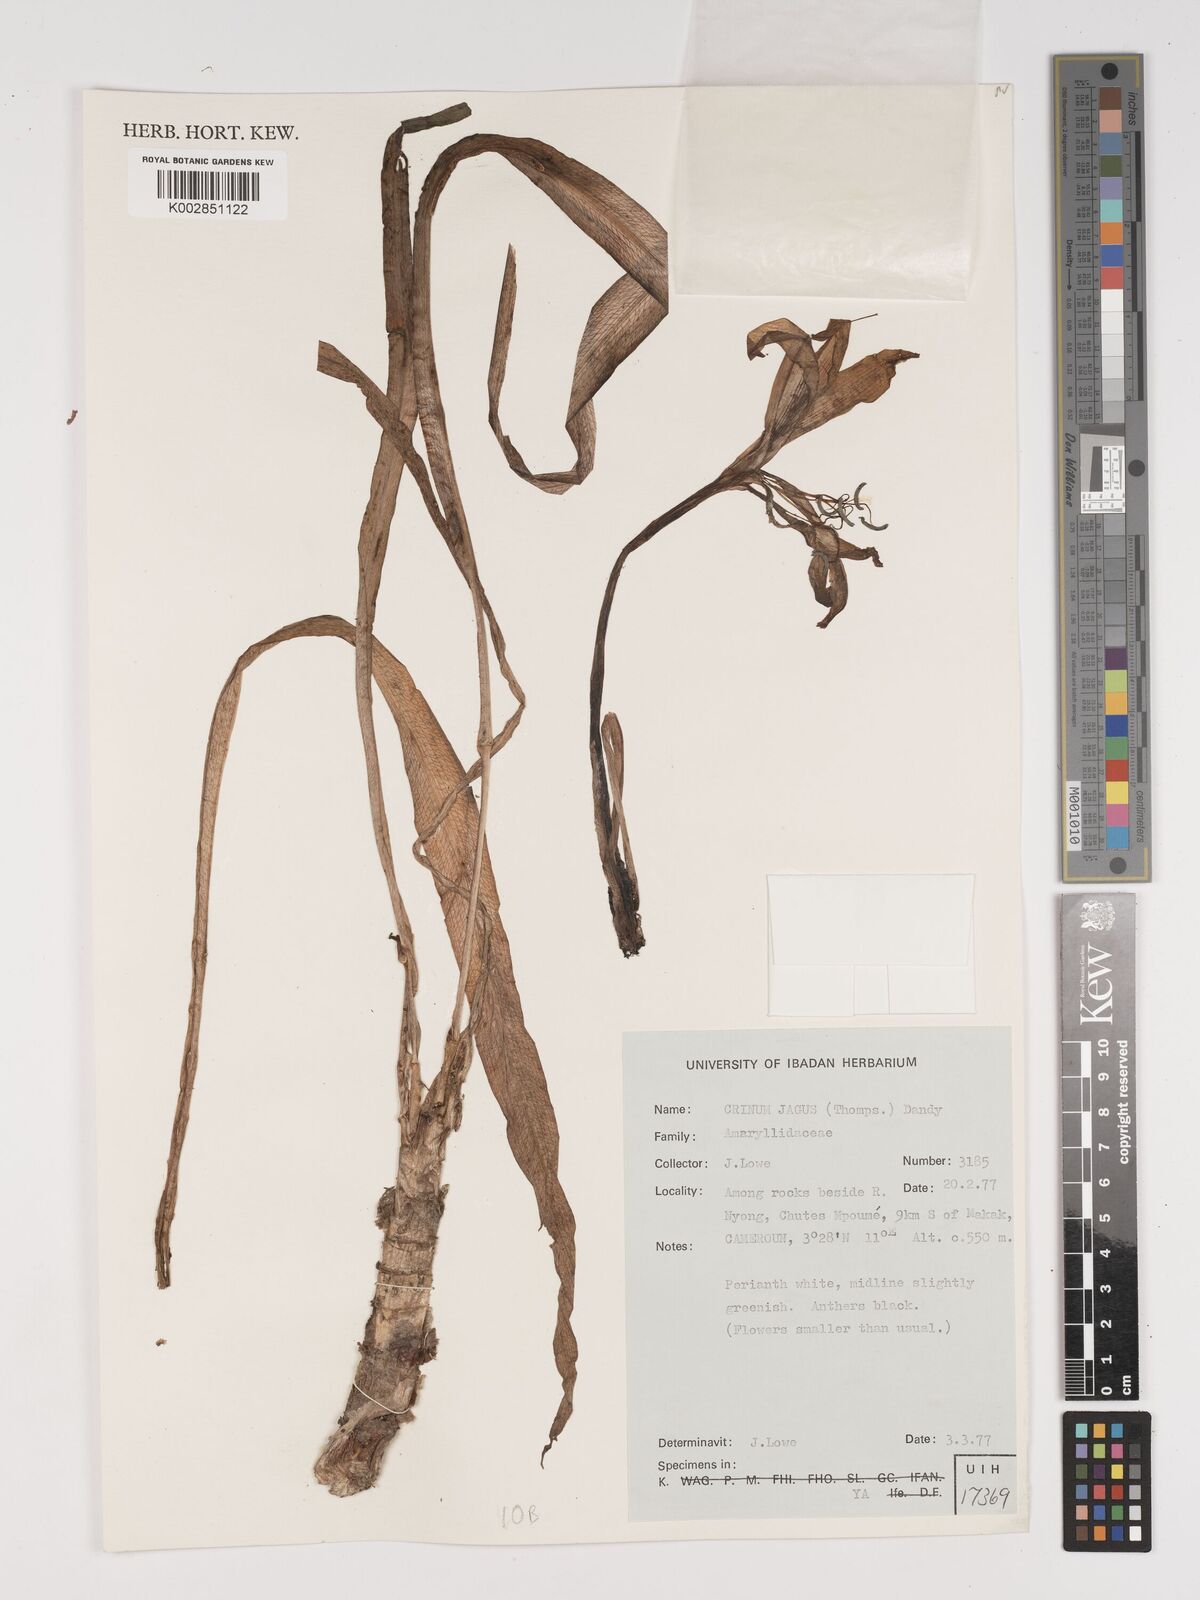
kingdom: Plantae
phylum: Tracheophyta
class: Liliopsida
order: Asparagales
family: Amaryllidaceae
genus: Crinum
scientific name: Crinum jagus
